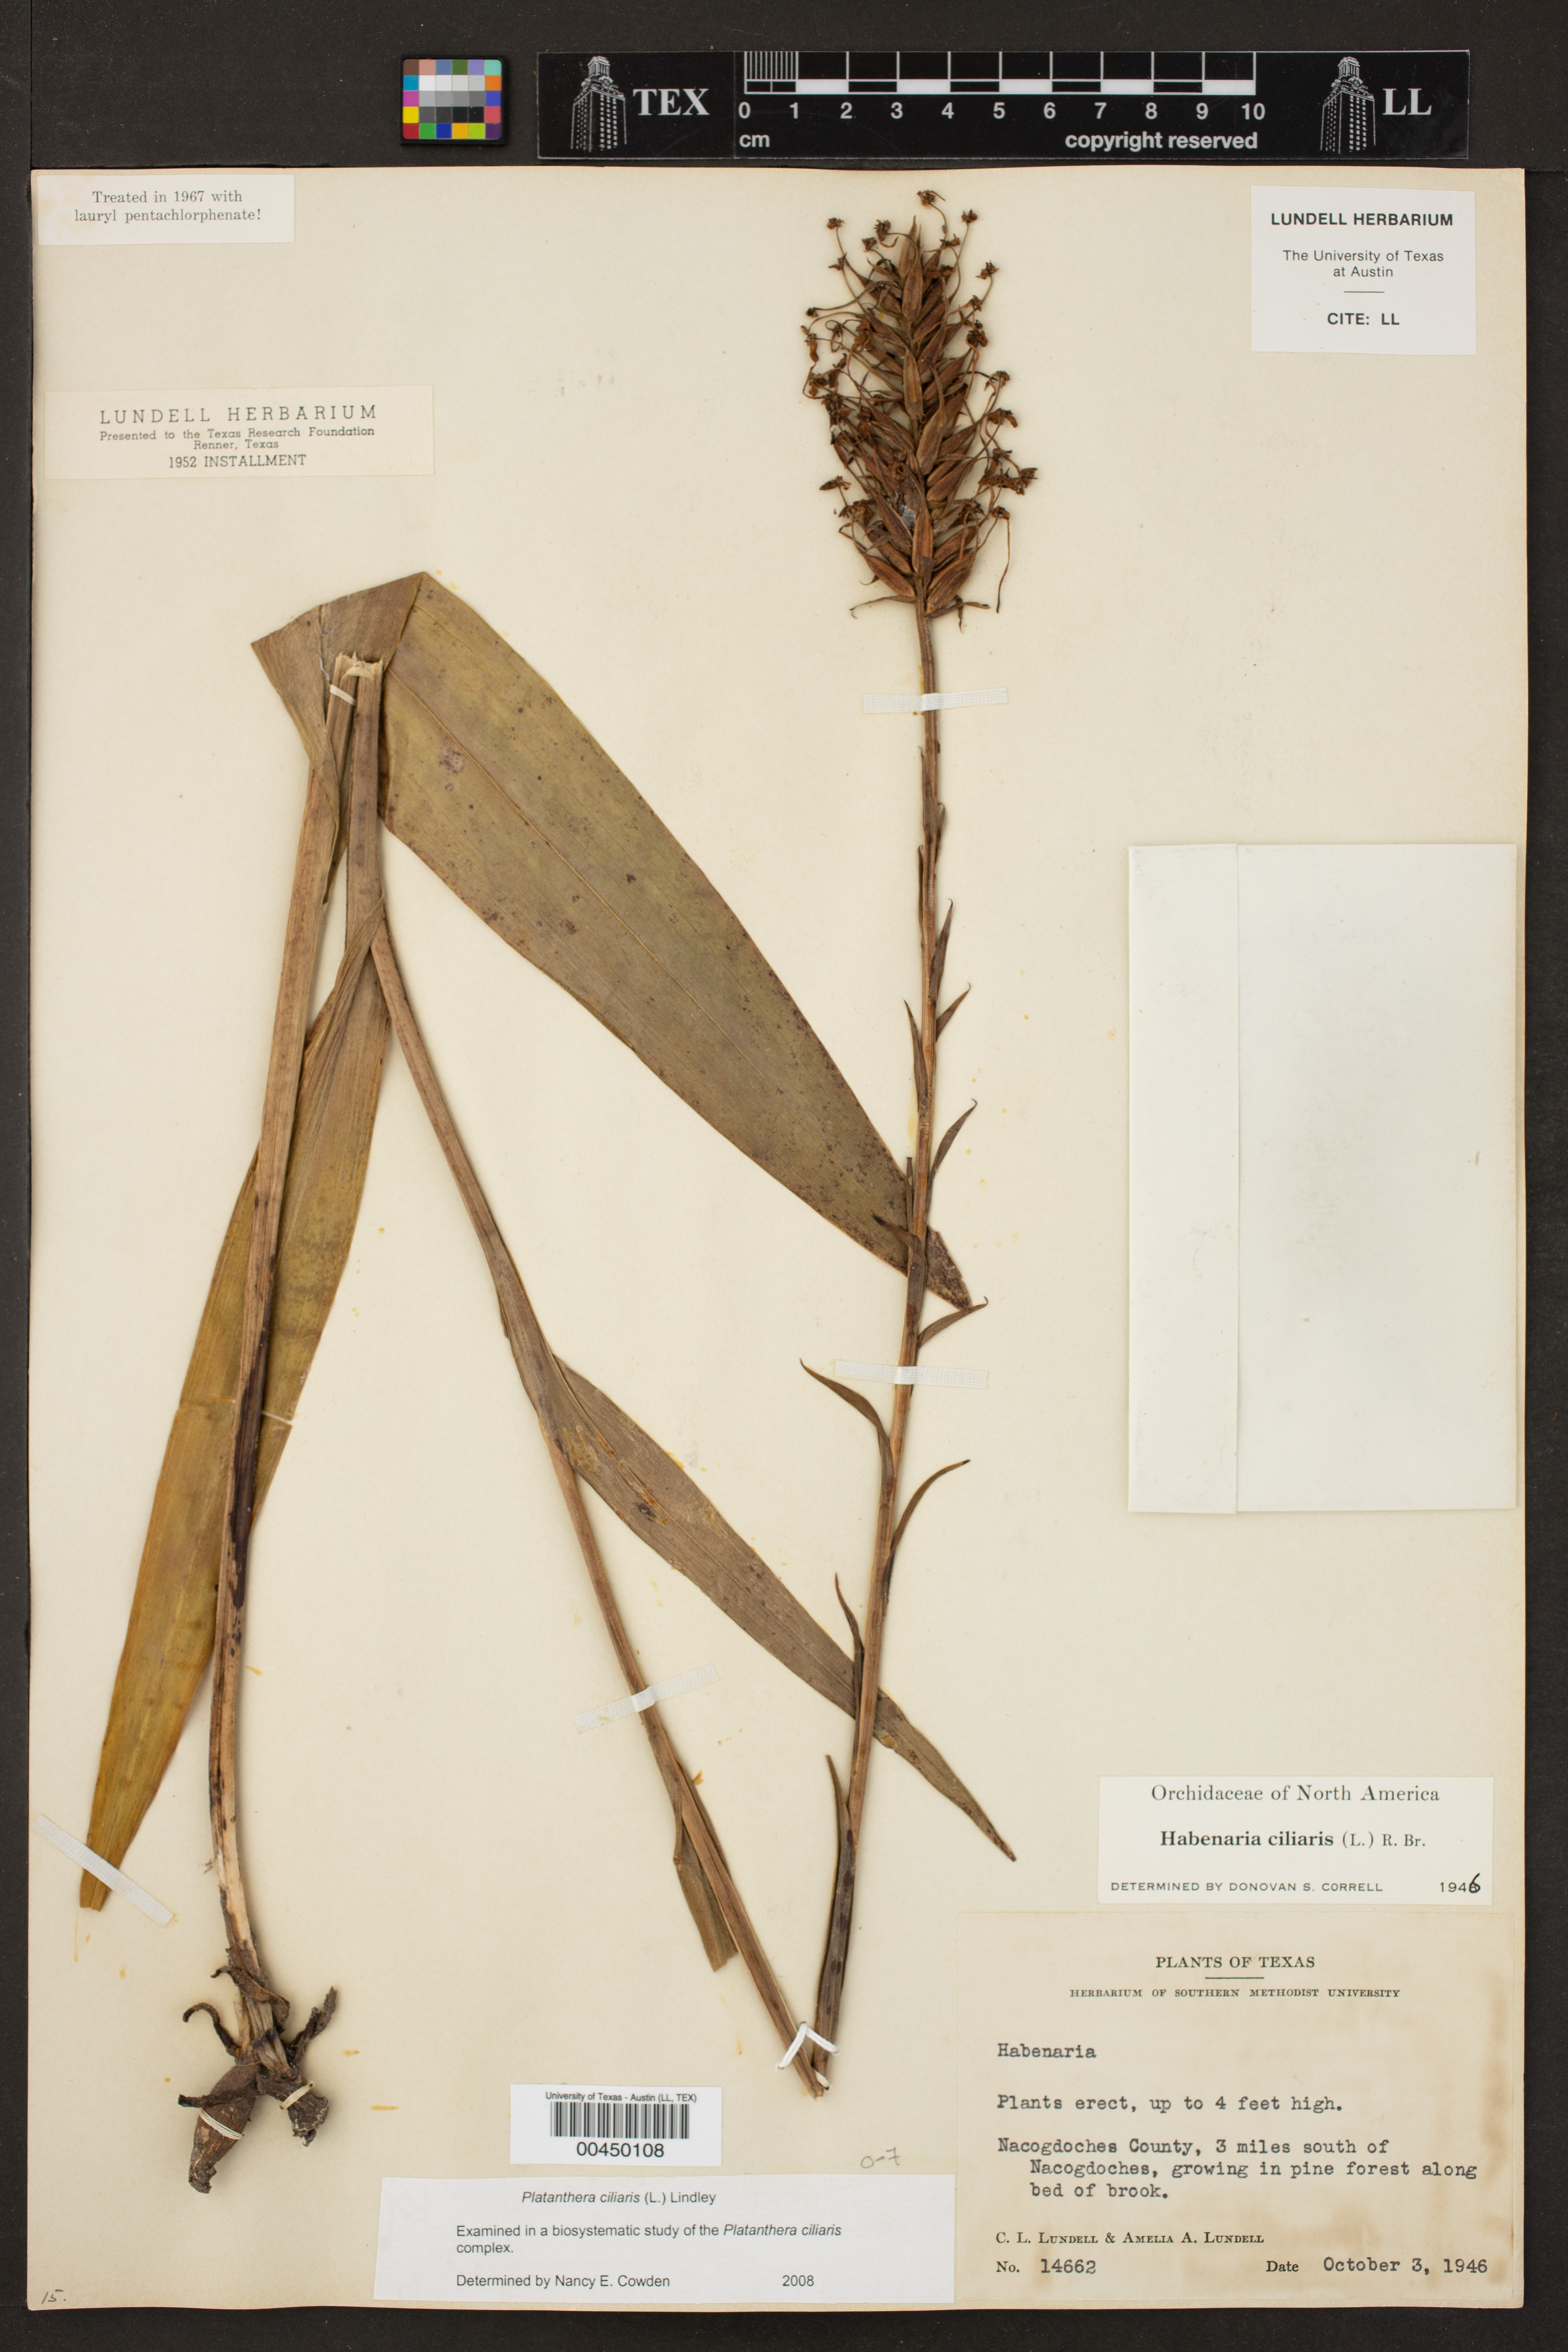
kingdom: Plantae
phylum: Tracheophyta
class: Liliopsida
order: Asparagales
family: Orchidaceae
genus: Platanthera
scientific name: Platanthera ciliaris
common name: Yellow fringed orchid
